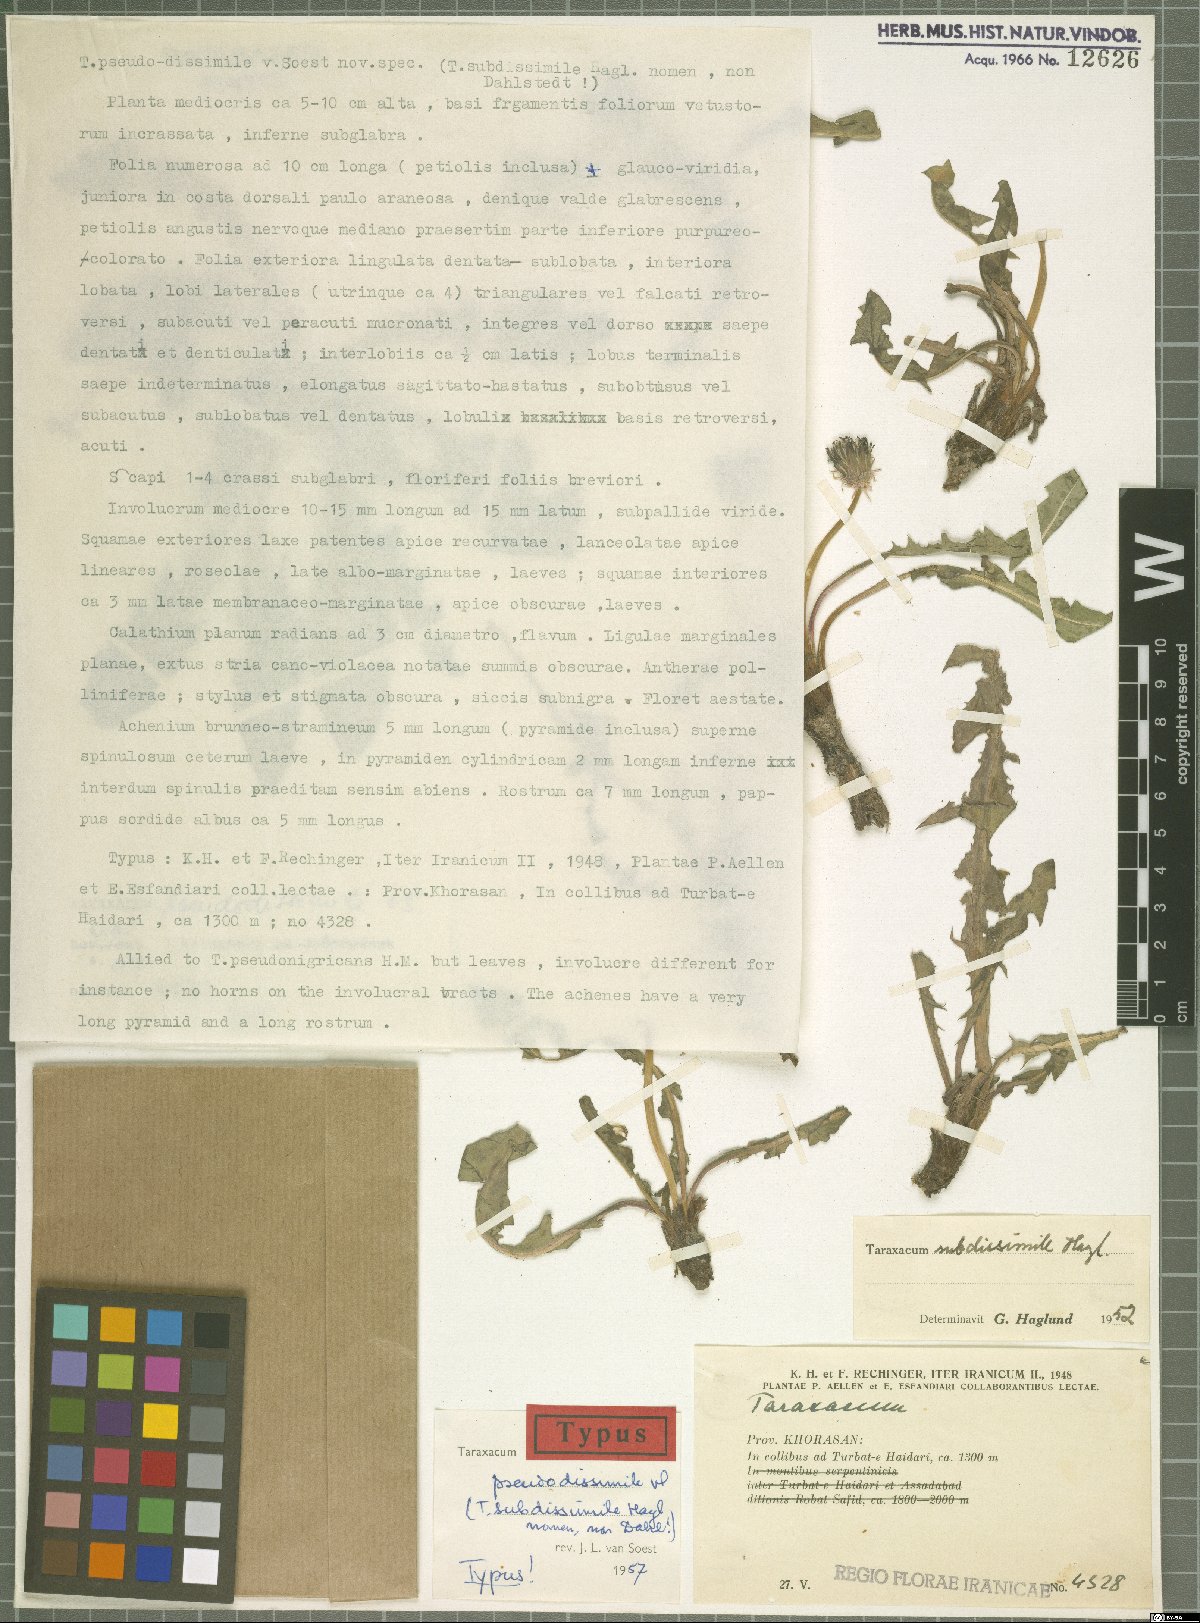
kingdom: Plantae
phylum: Tracheophyta
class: Magnoliopsida
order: Asterales
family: Asteraceae
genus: Taraxacum
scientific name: Taraxacum pseudodissimile
